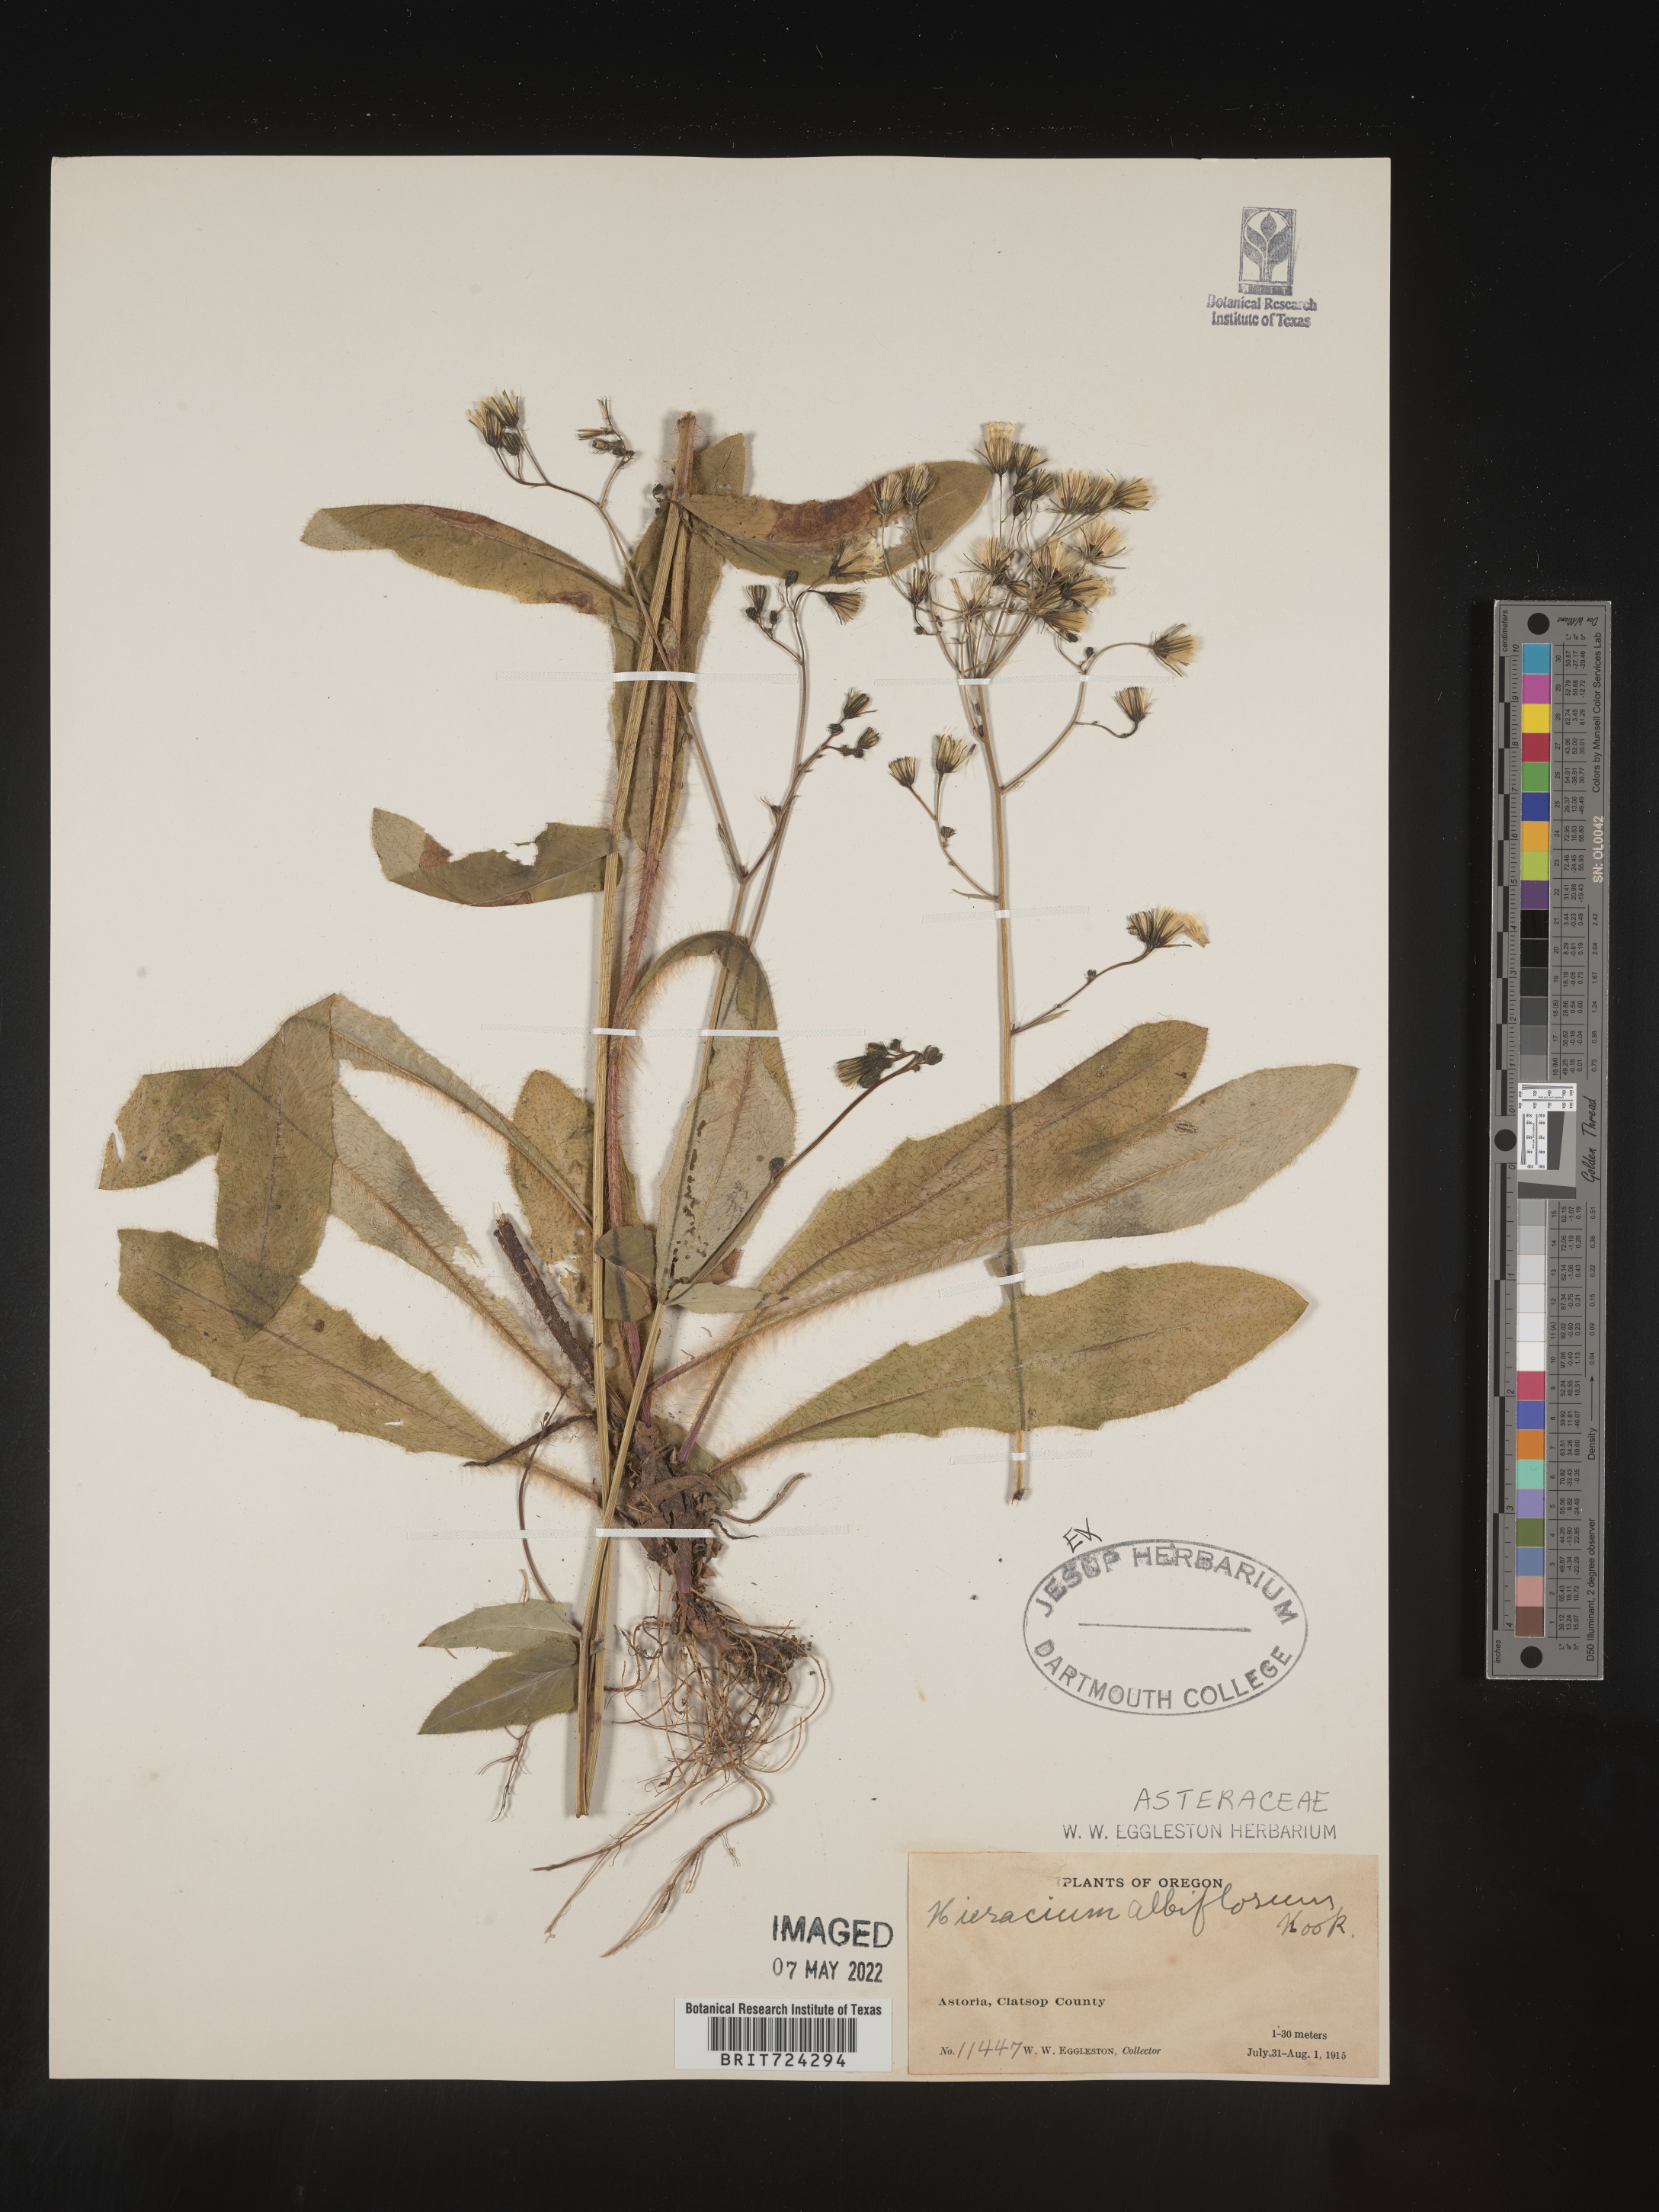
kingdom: Plantae
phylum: Tracheophyta
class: Magnoliopsida
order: Asterales
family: Asteraceae
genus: Hieracium
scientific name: Hieracium albiflorum
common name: White hawkweed
